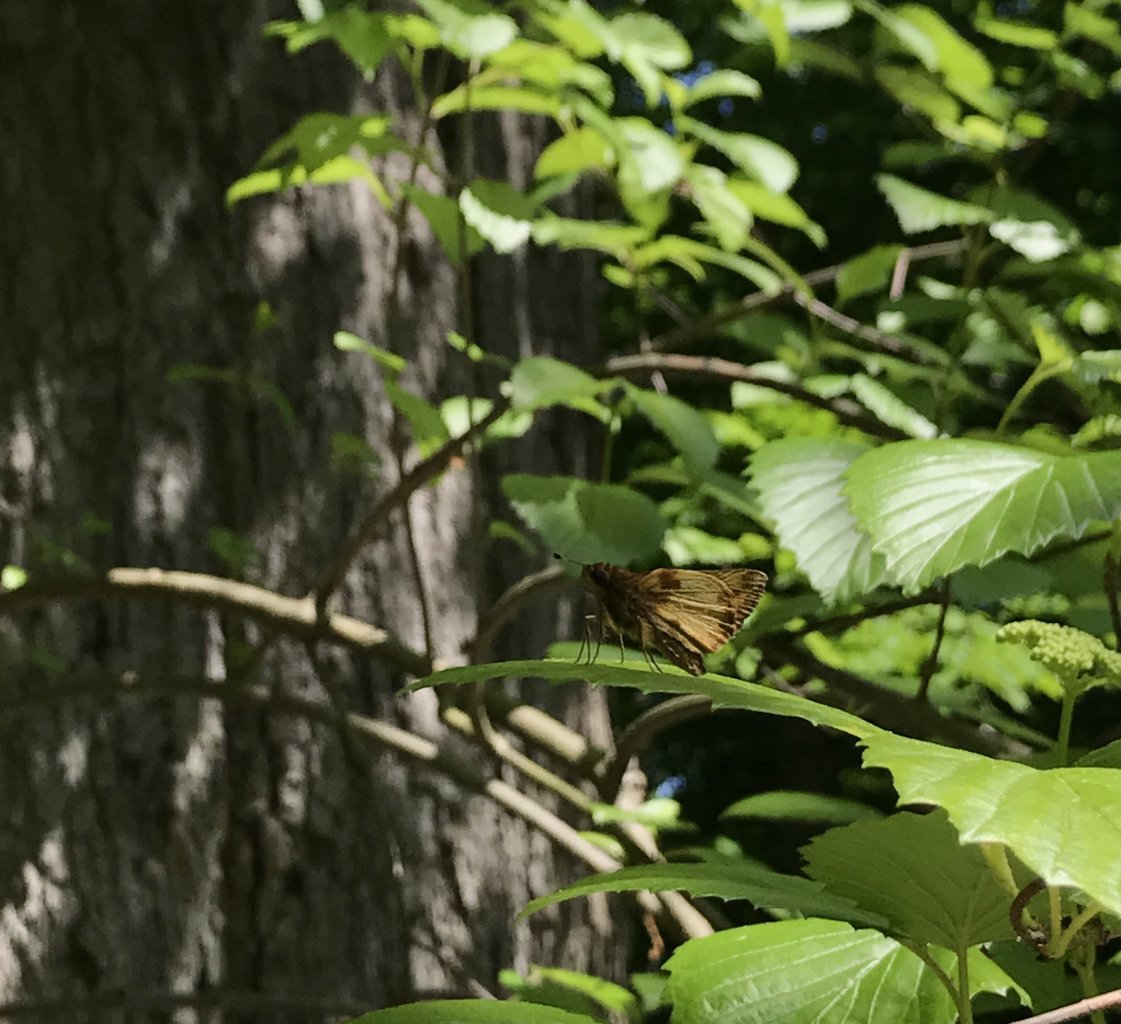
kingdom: Animalia
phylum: Arthropoda
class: Insecta
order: Lepidoptera
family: Hesperiidae
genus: Lon
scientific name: Lon zabulon
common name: Zabulon Skipper
